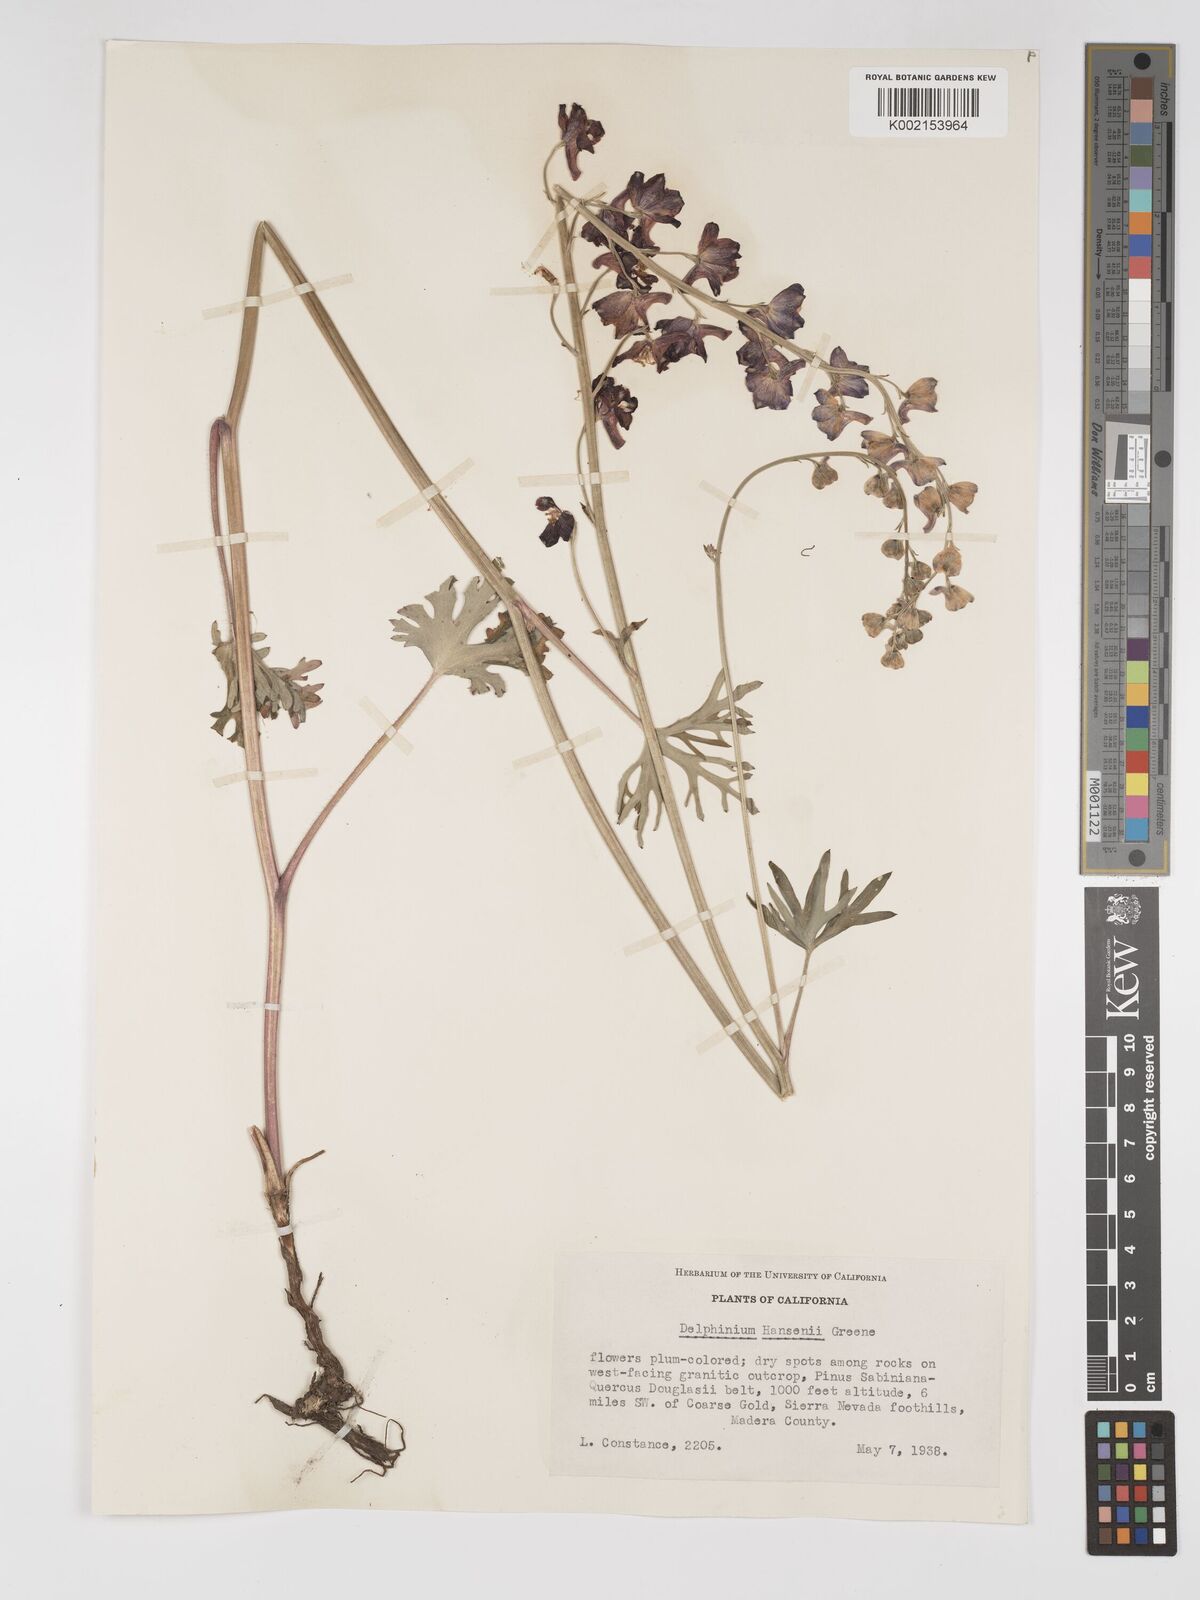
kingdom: Plantae
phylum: Tracheophyta
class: Magnoliopsida
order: Ranunculales
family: Ranunculaceae
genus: Delphinium
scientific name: Delphinium hansenii
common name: Hansen's larkspur
